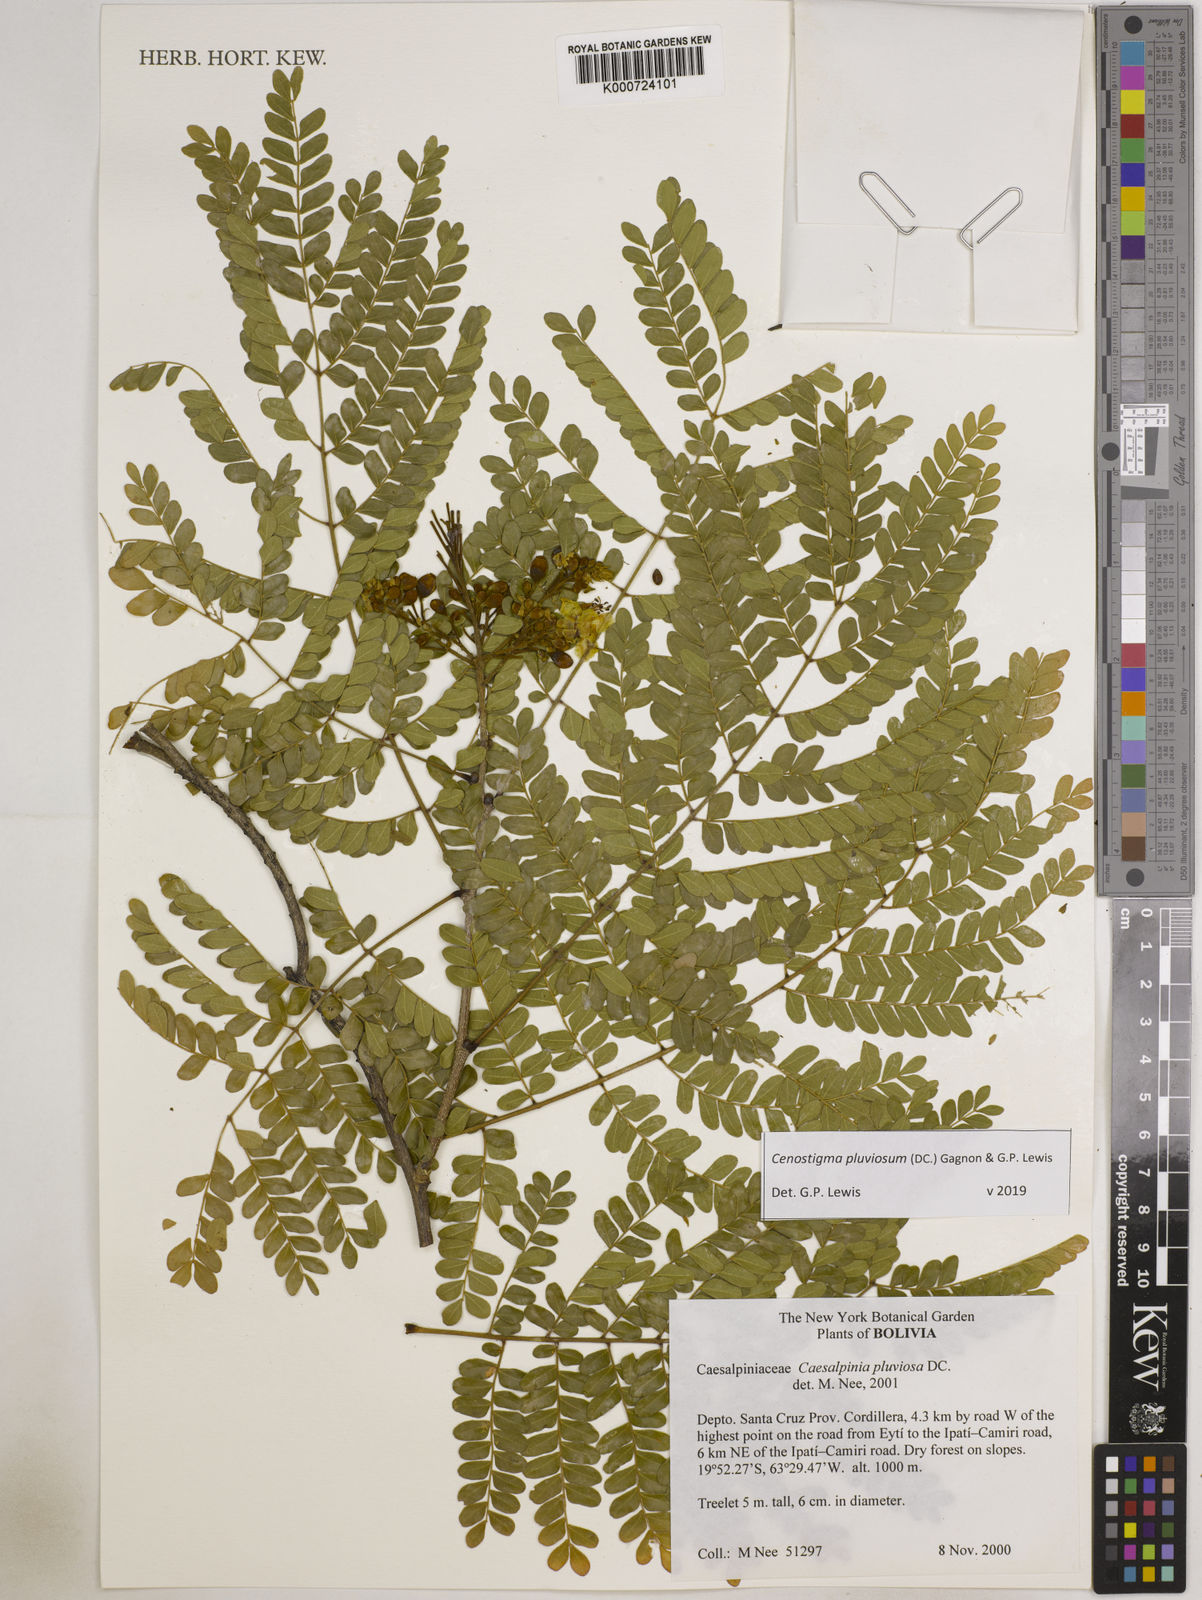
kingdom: Plantae
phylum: Tracheophyta
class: Magnoliopsida
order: Fabales
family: Fabaceae
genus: Cenostigma
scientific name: Cenostigma pluviosum
